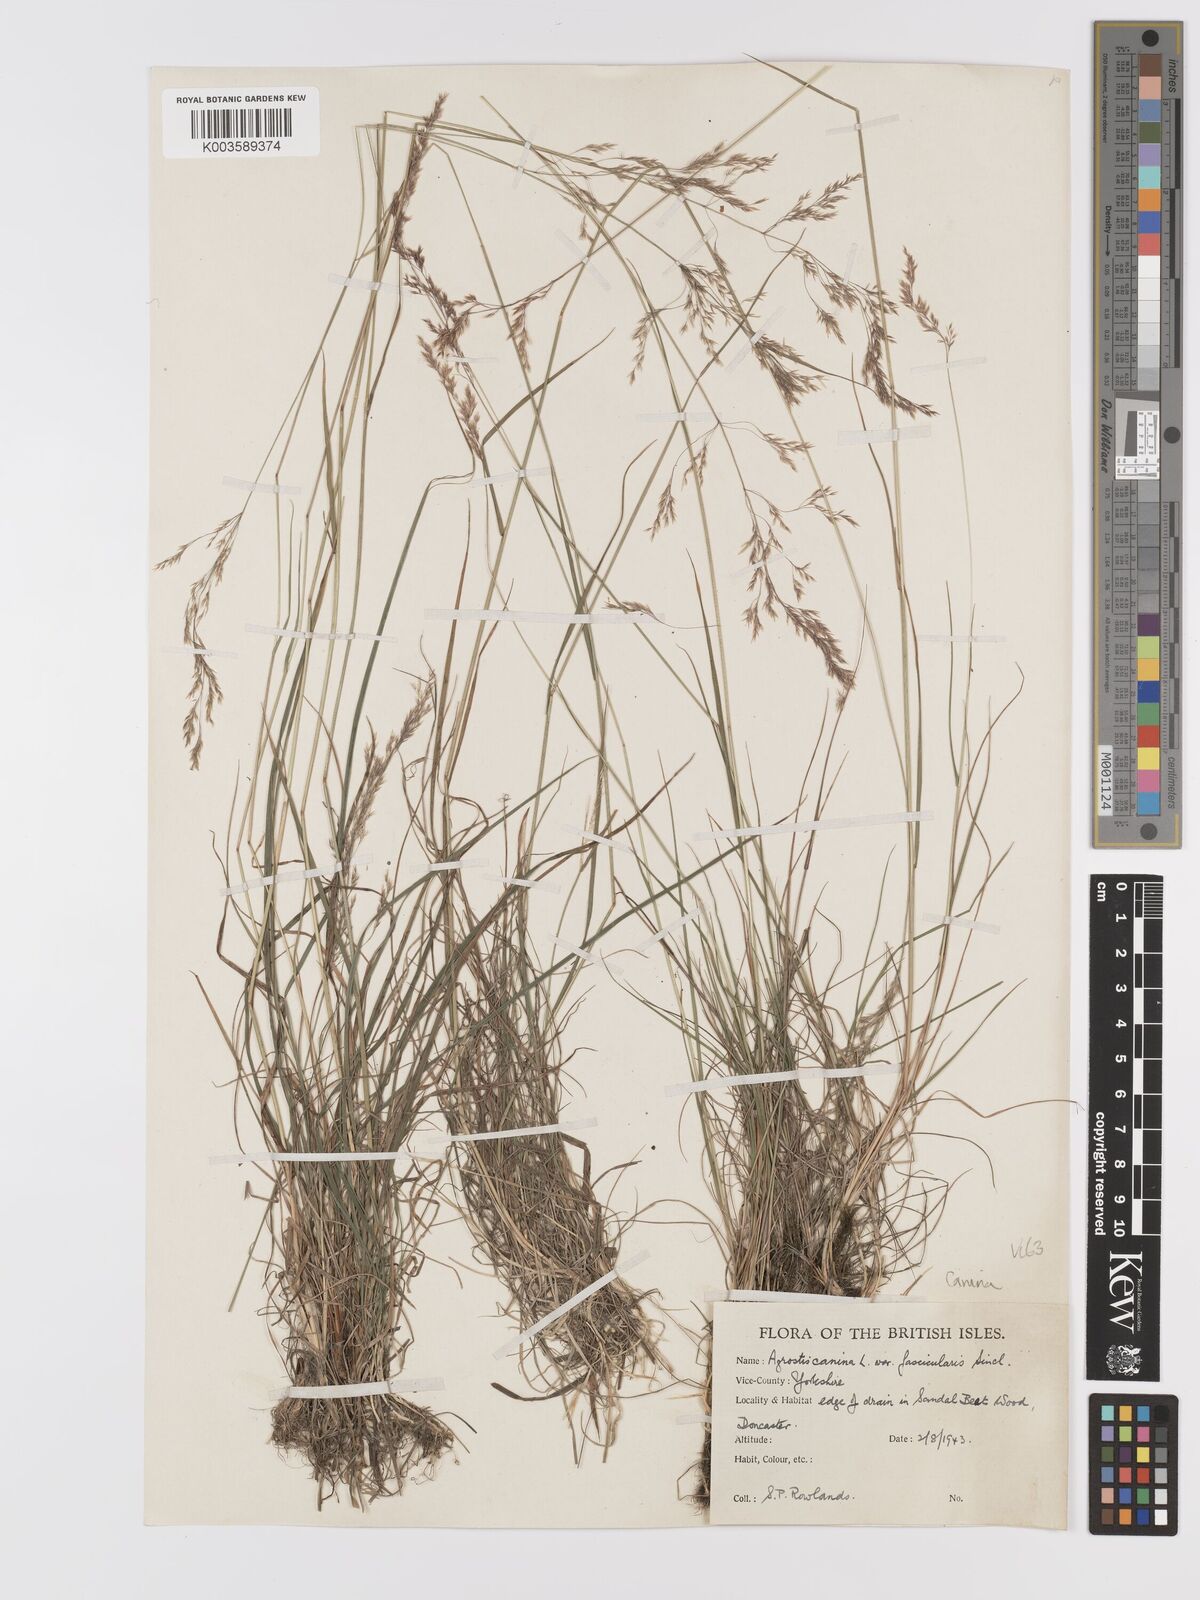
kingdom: Plantae
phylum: Tracheophyta
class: Liliopsida
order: Poales
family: Poaceae
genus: Agrostis
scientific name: Agrostis canina
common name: Velvet bent
